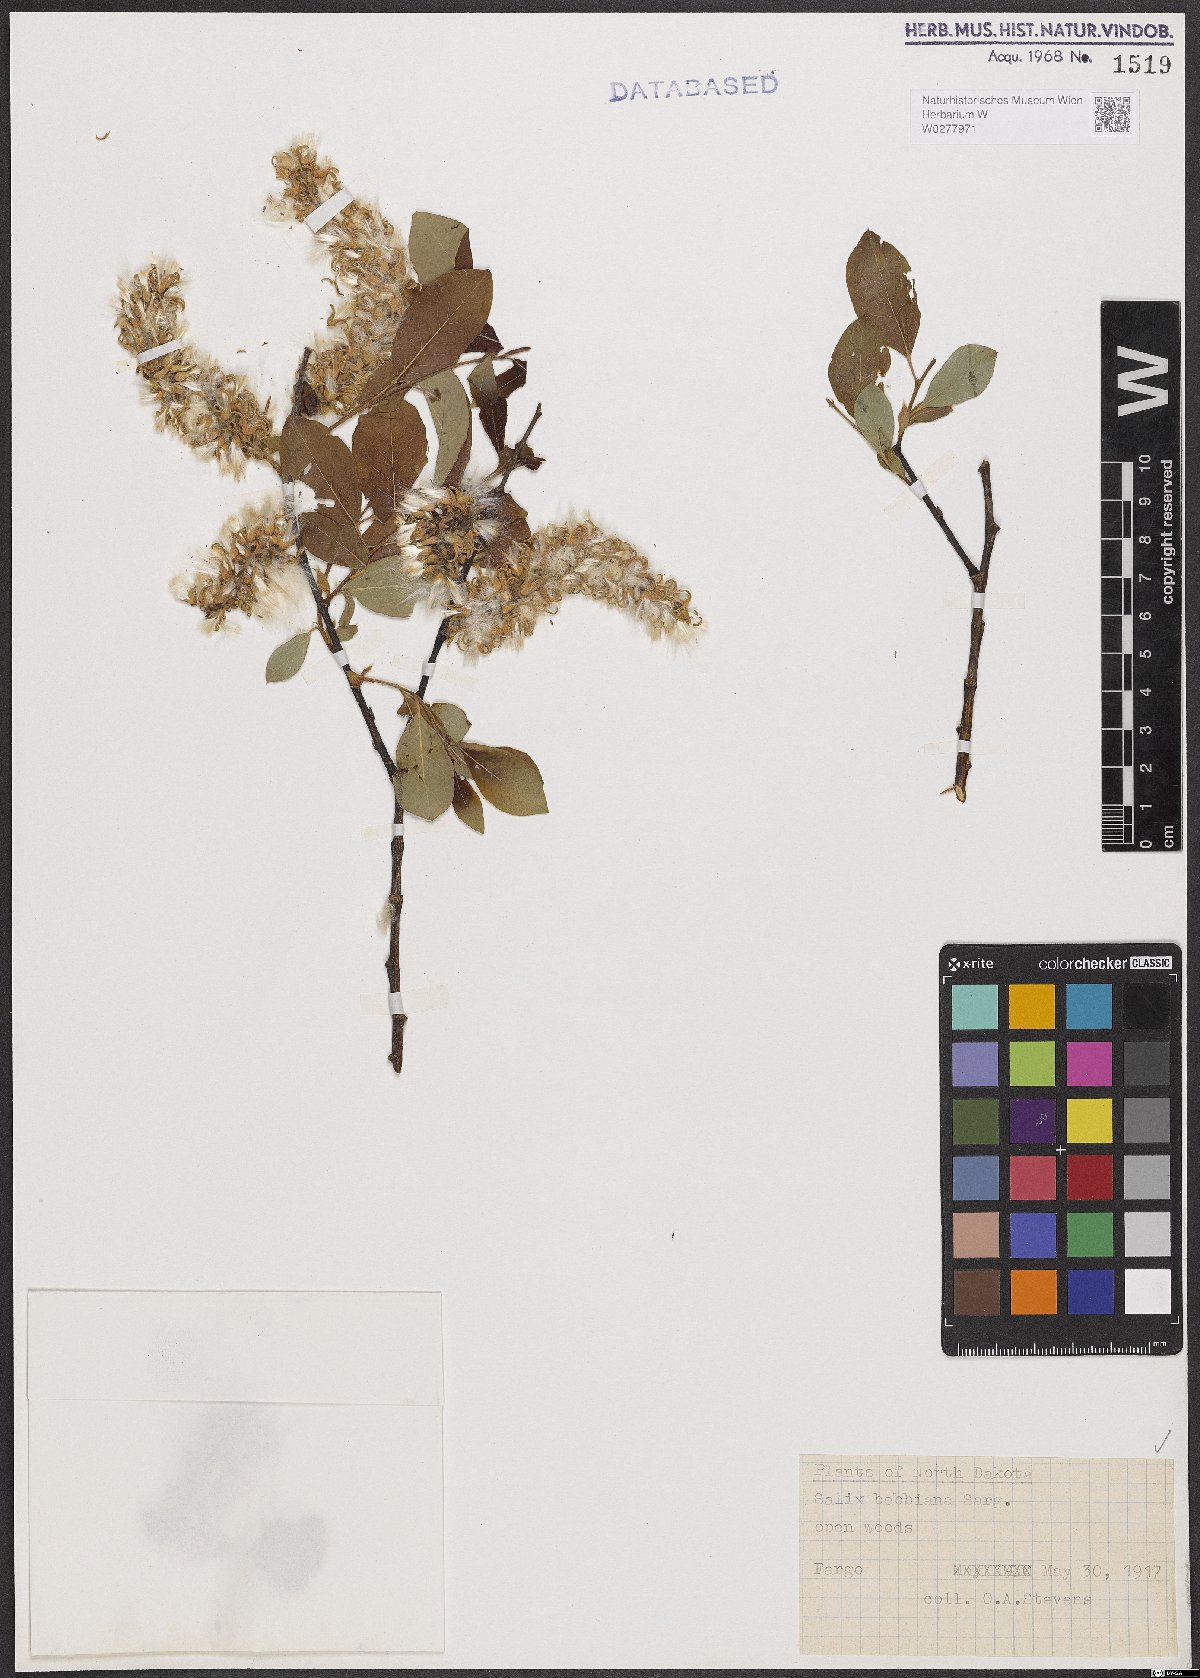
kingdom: Plantae
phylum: Tracheophyta
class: Magnoliopsida
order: Malpighiales
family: Salicaceae
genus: Salix
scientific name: Salix bebbiana
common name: Bebb's willow
